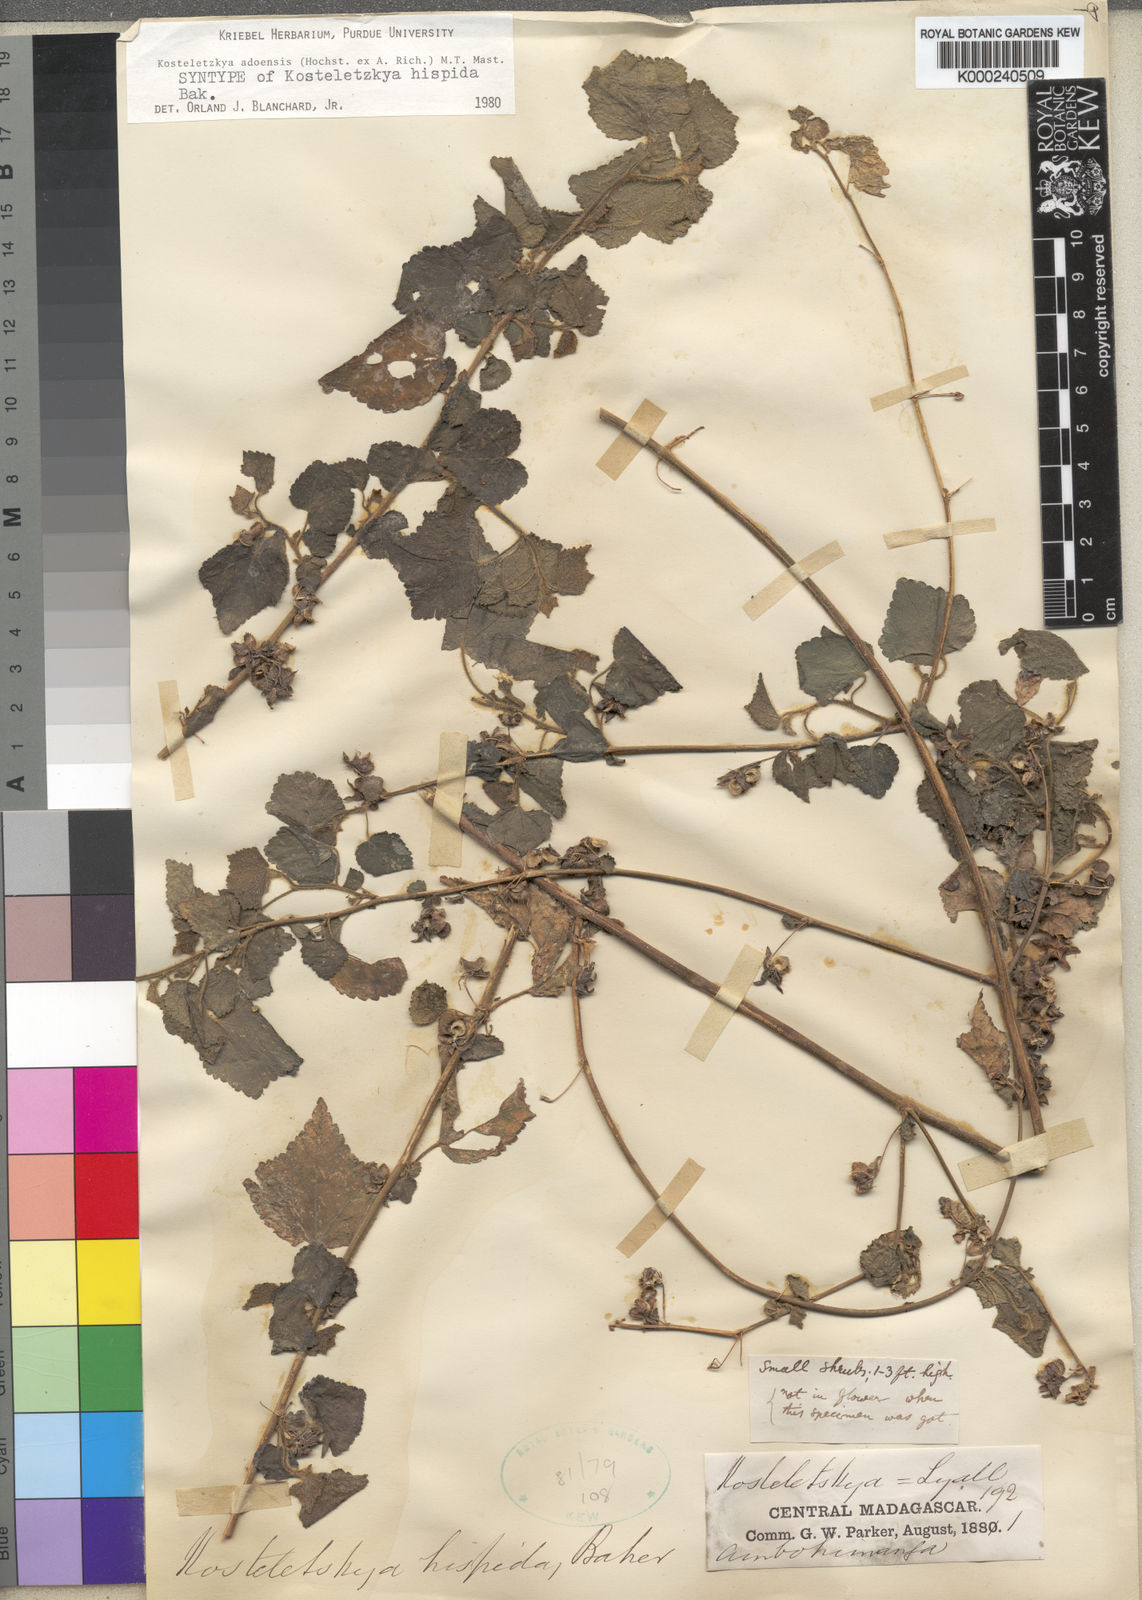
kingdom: Plantae
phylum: Tracheophyta
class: Magnoliopsida
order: Malvales
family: Malvaceae
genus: Kosteletzkya
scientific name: Kosteletzkya adoensis
